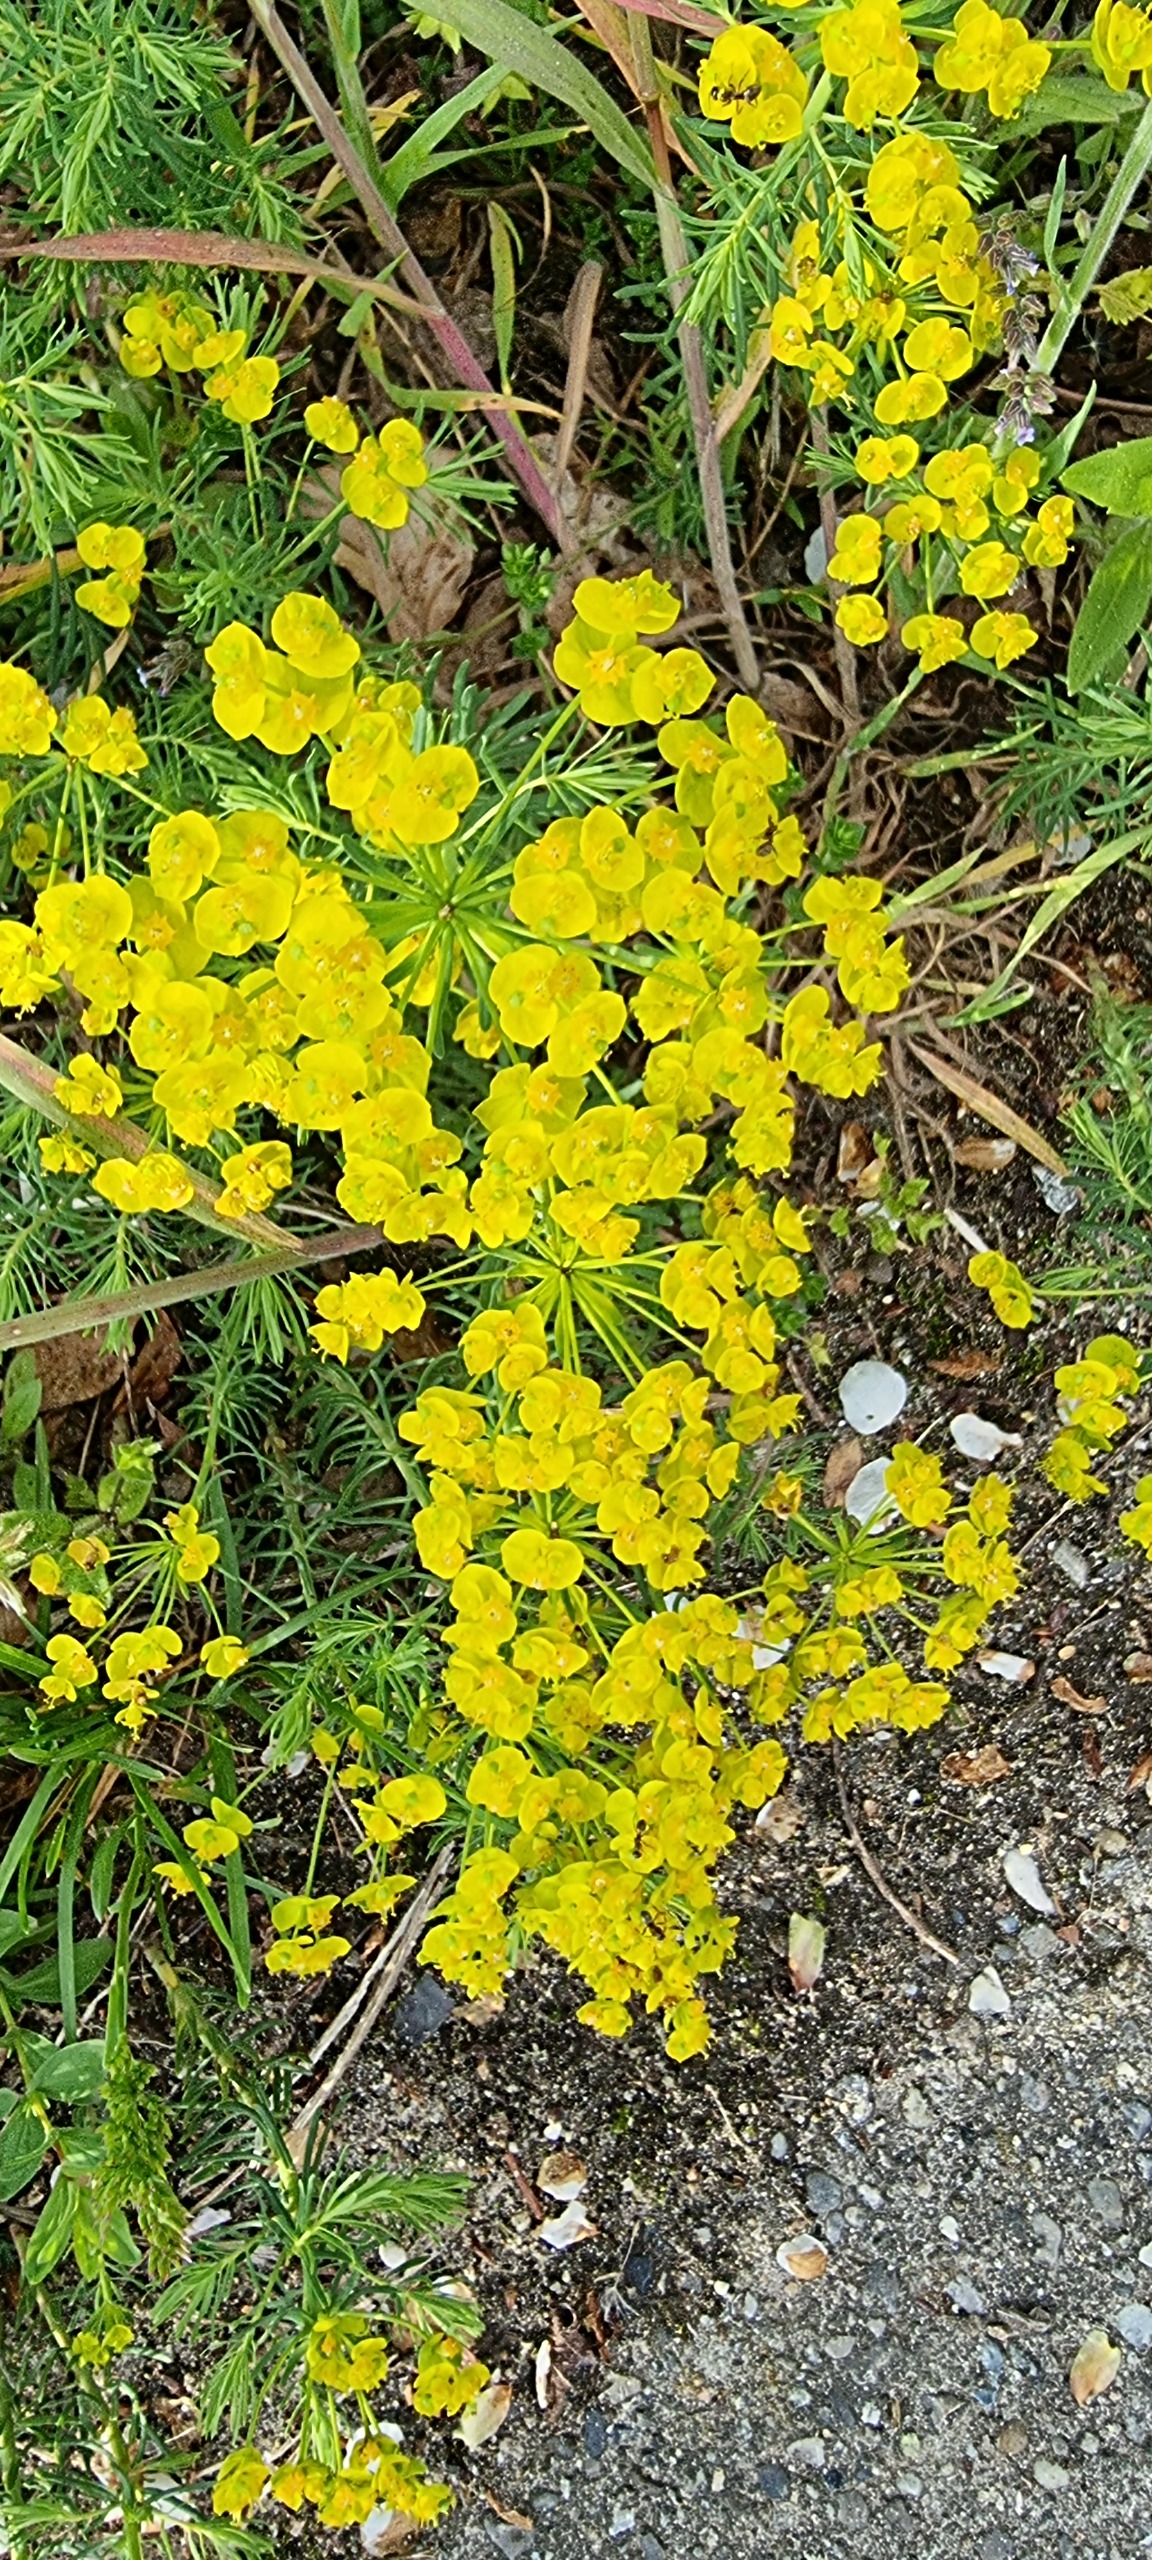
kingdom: Plantae
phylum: Tracheophyta
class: Magnoliopsida
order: Malpighiales
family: Euphorbiaceae
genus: Euphorbia
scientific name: Euphorbia cyparissias
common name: Cypres-vortemælk
